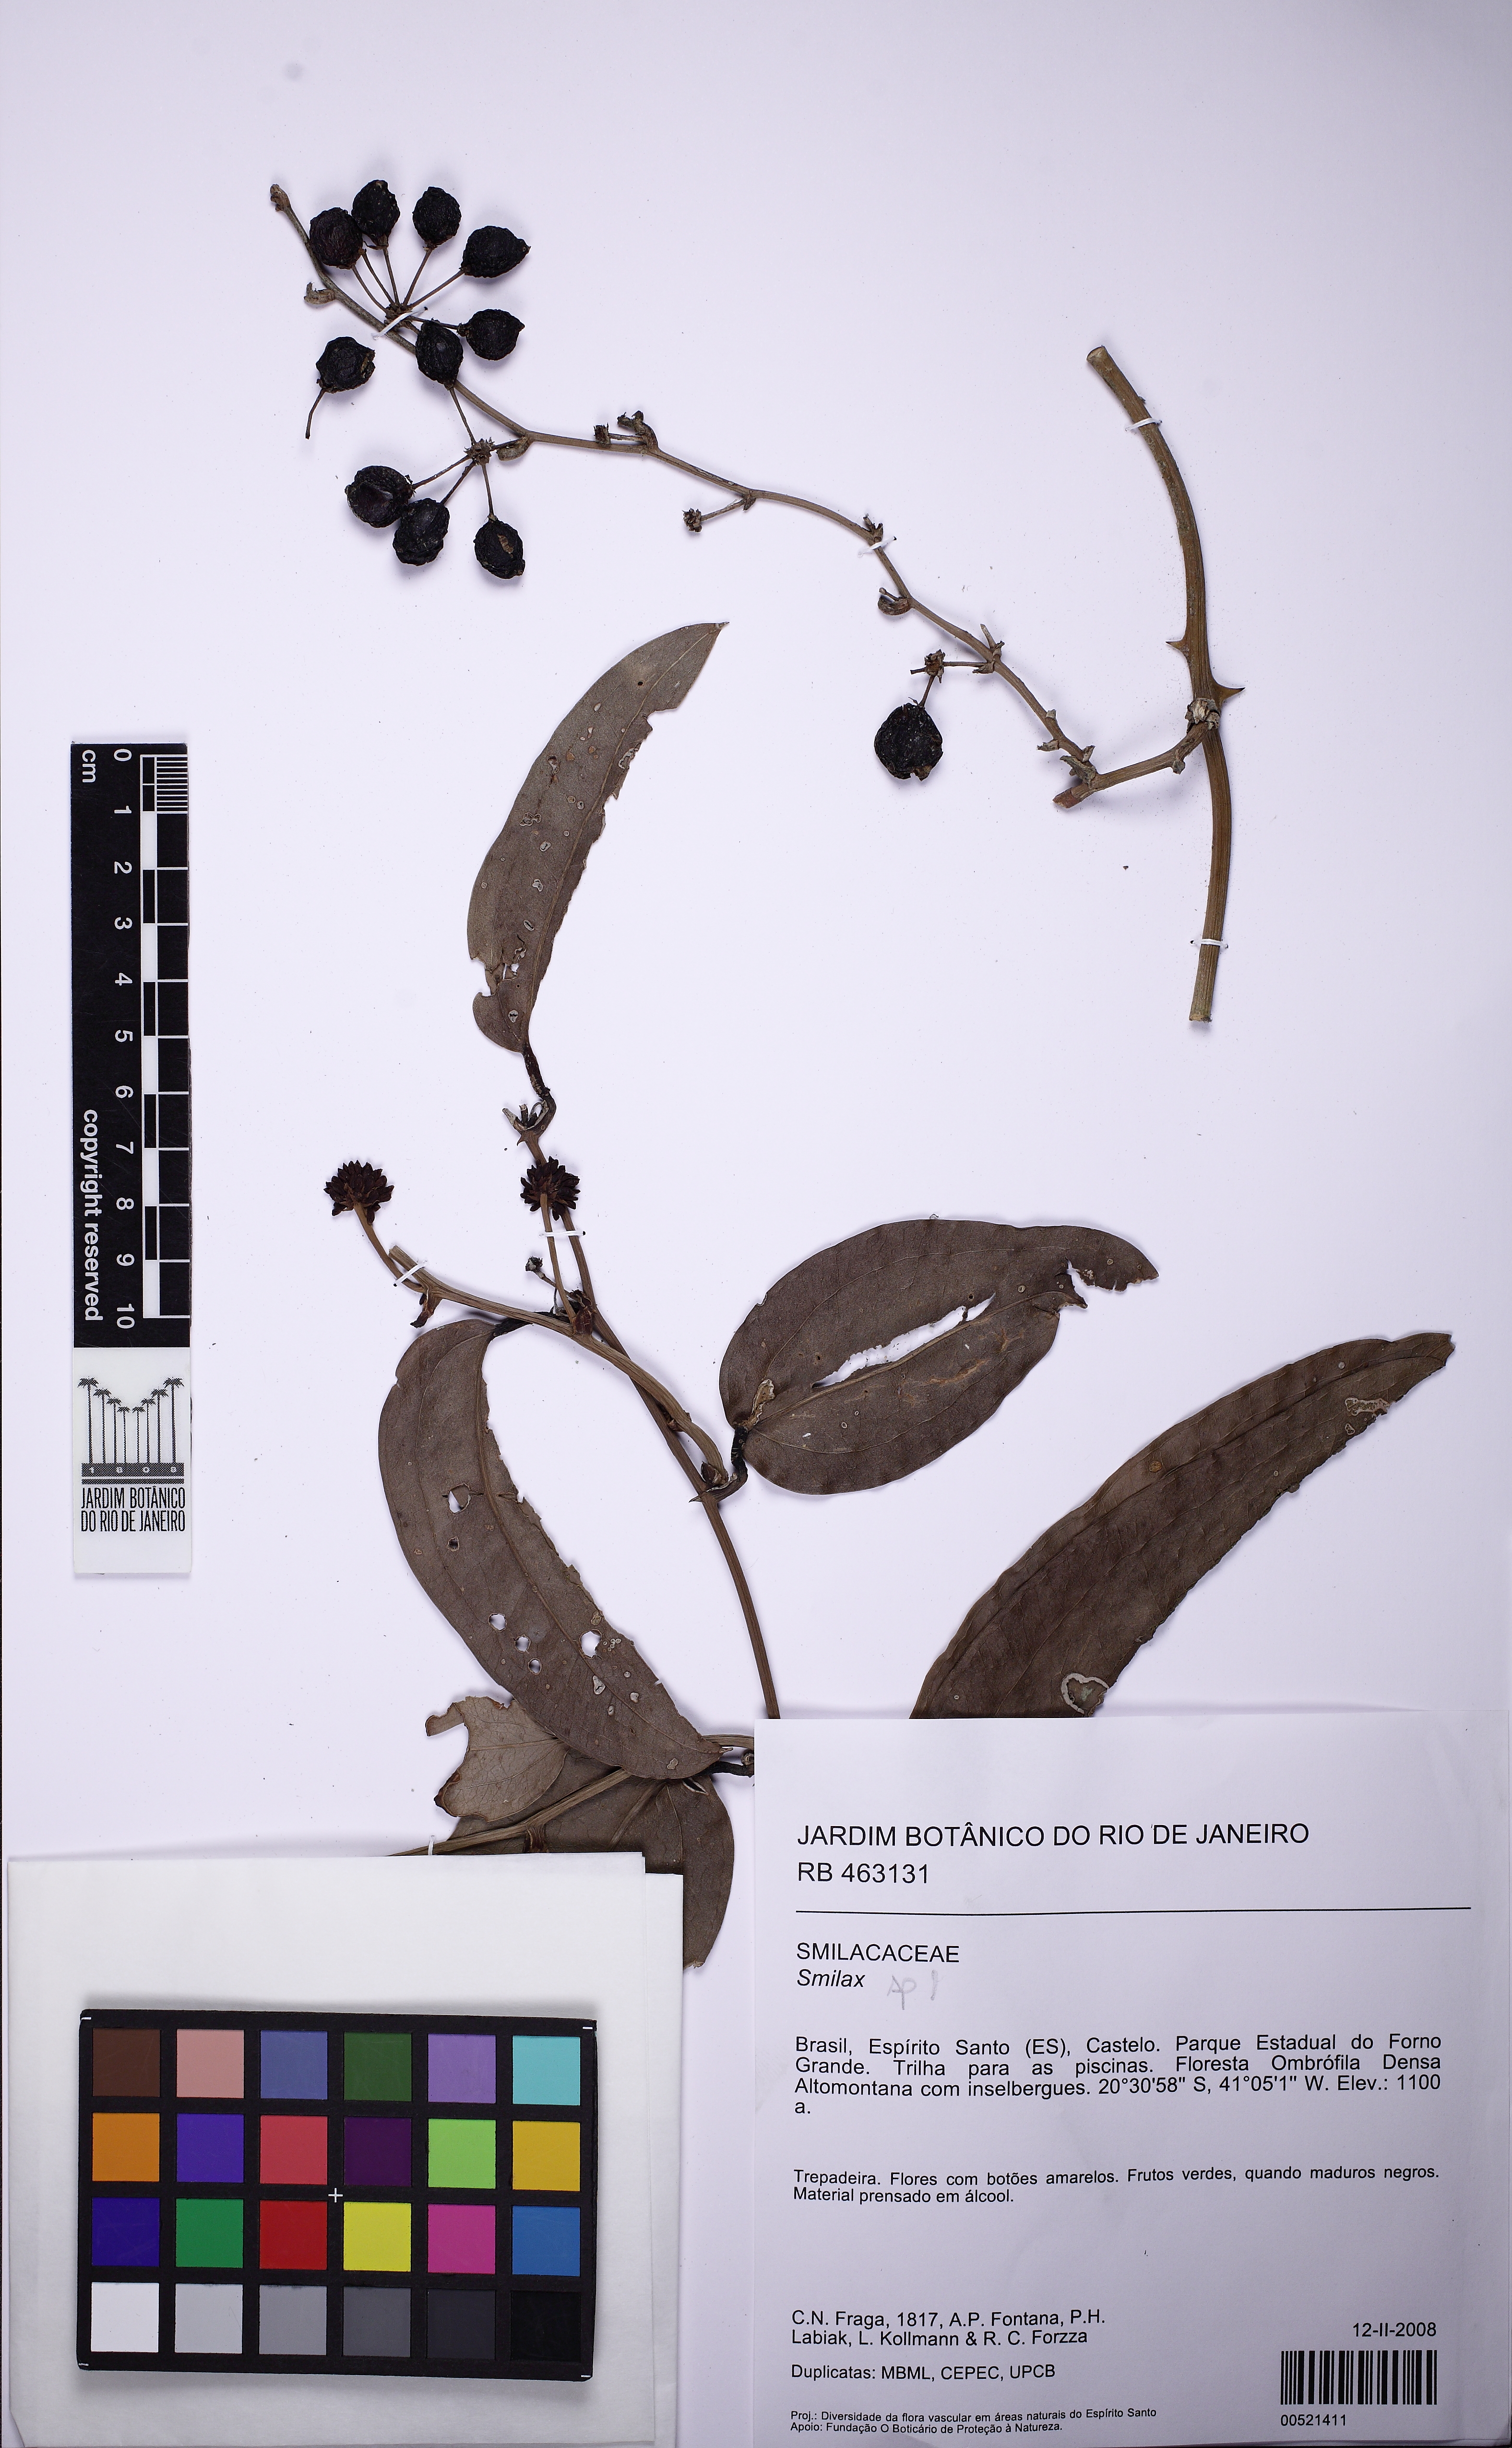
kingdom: Plantae
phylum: Tracheophyta
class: Liliopsida
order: Liliales
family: Smilacaceae
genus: Smilax
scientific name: Smilax
